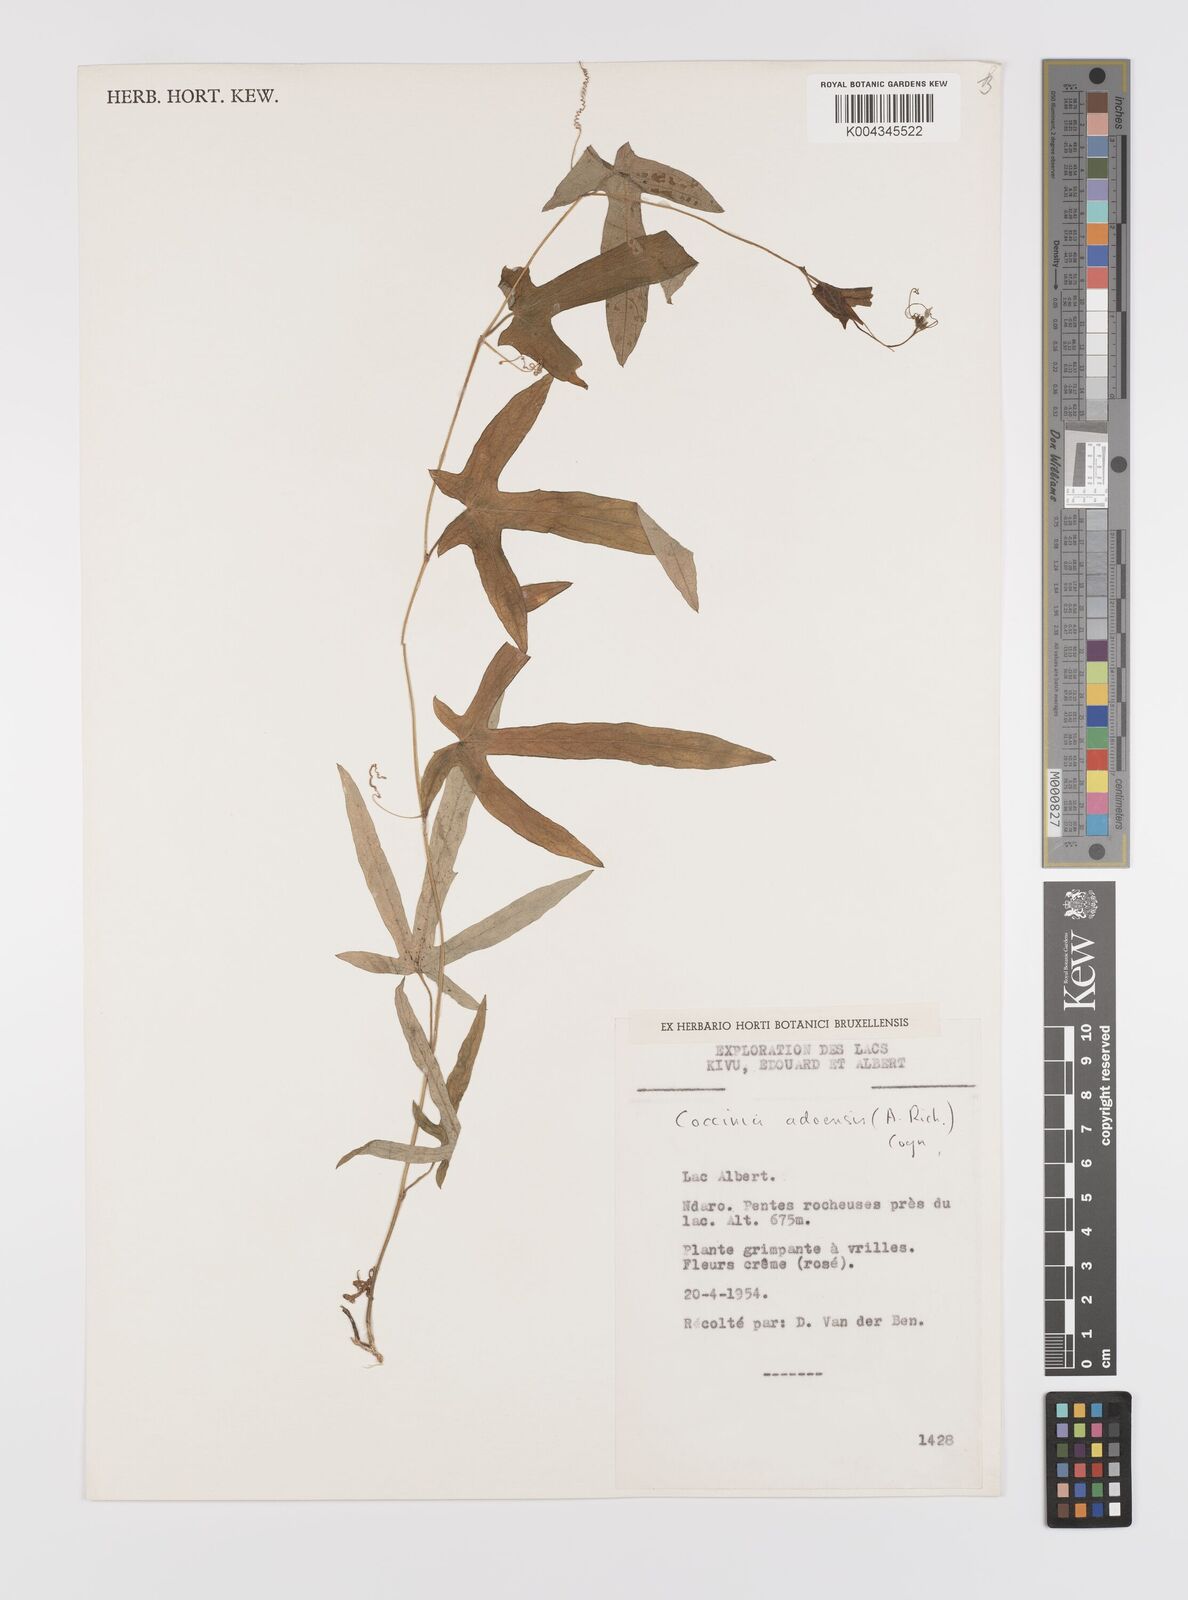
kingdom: Plantae
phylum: Tracheophyta
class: Magnoliopsida
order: Cucurbitales
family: Cucurbitaceae
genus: Coccinia
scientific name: Coccinia adoensis
